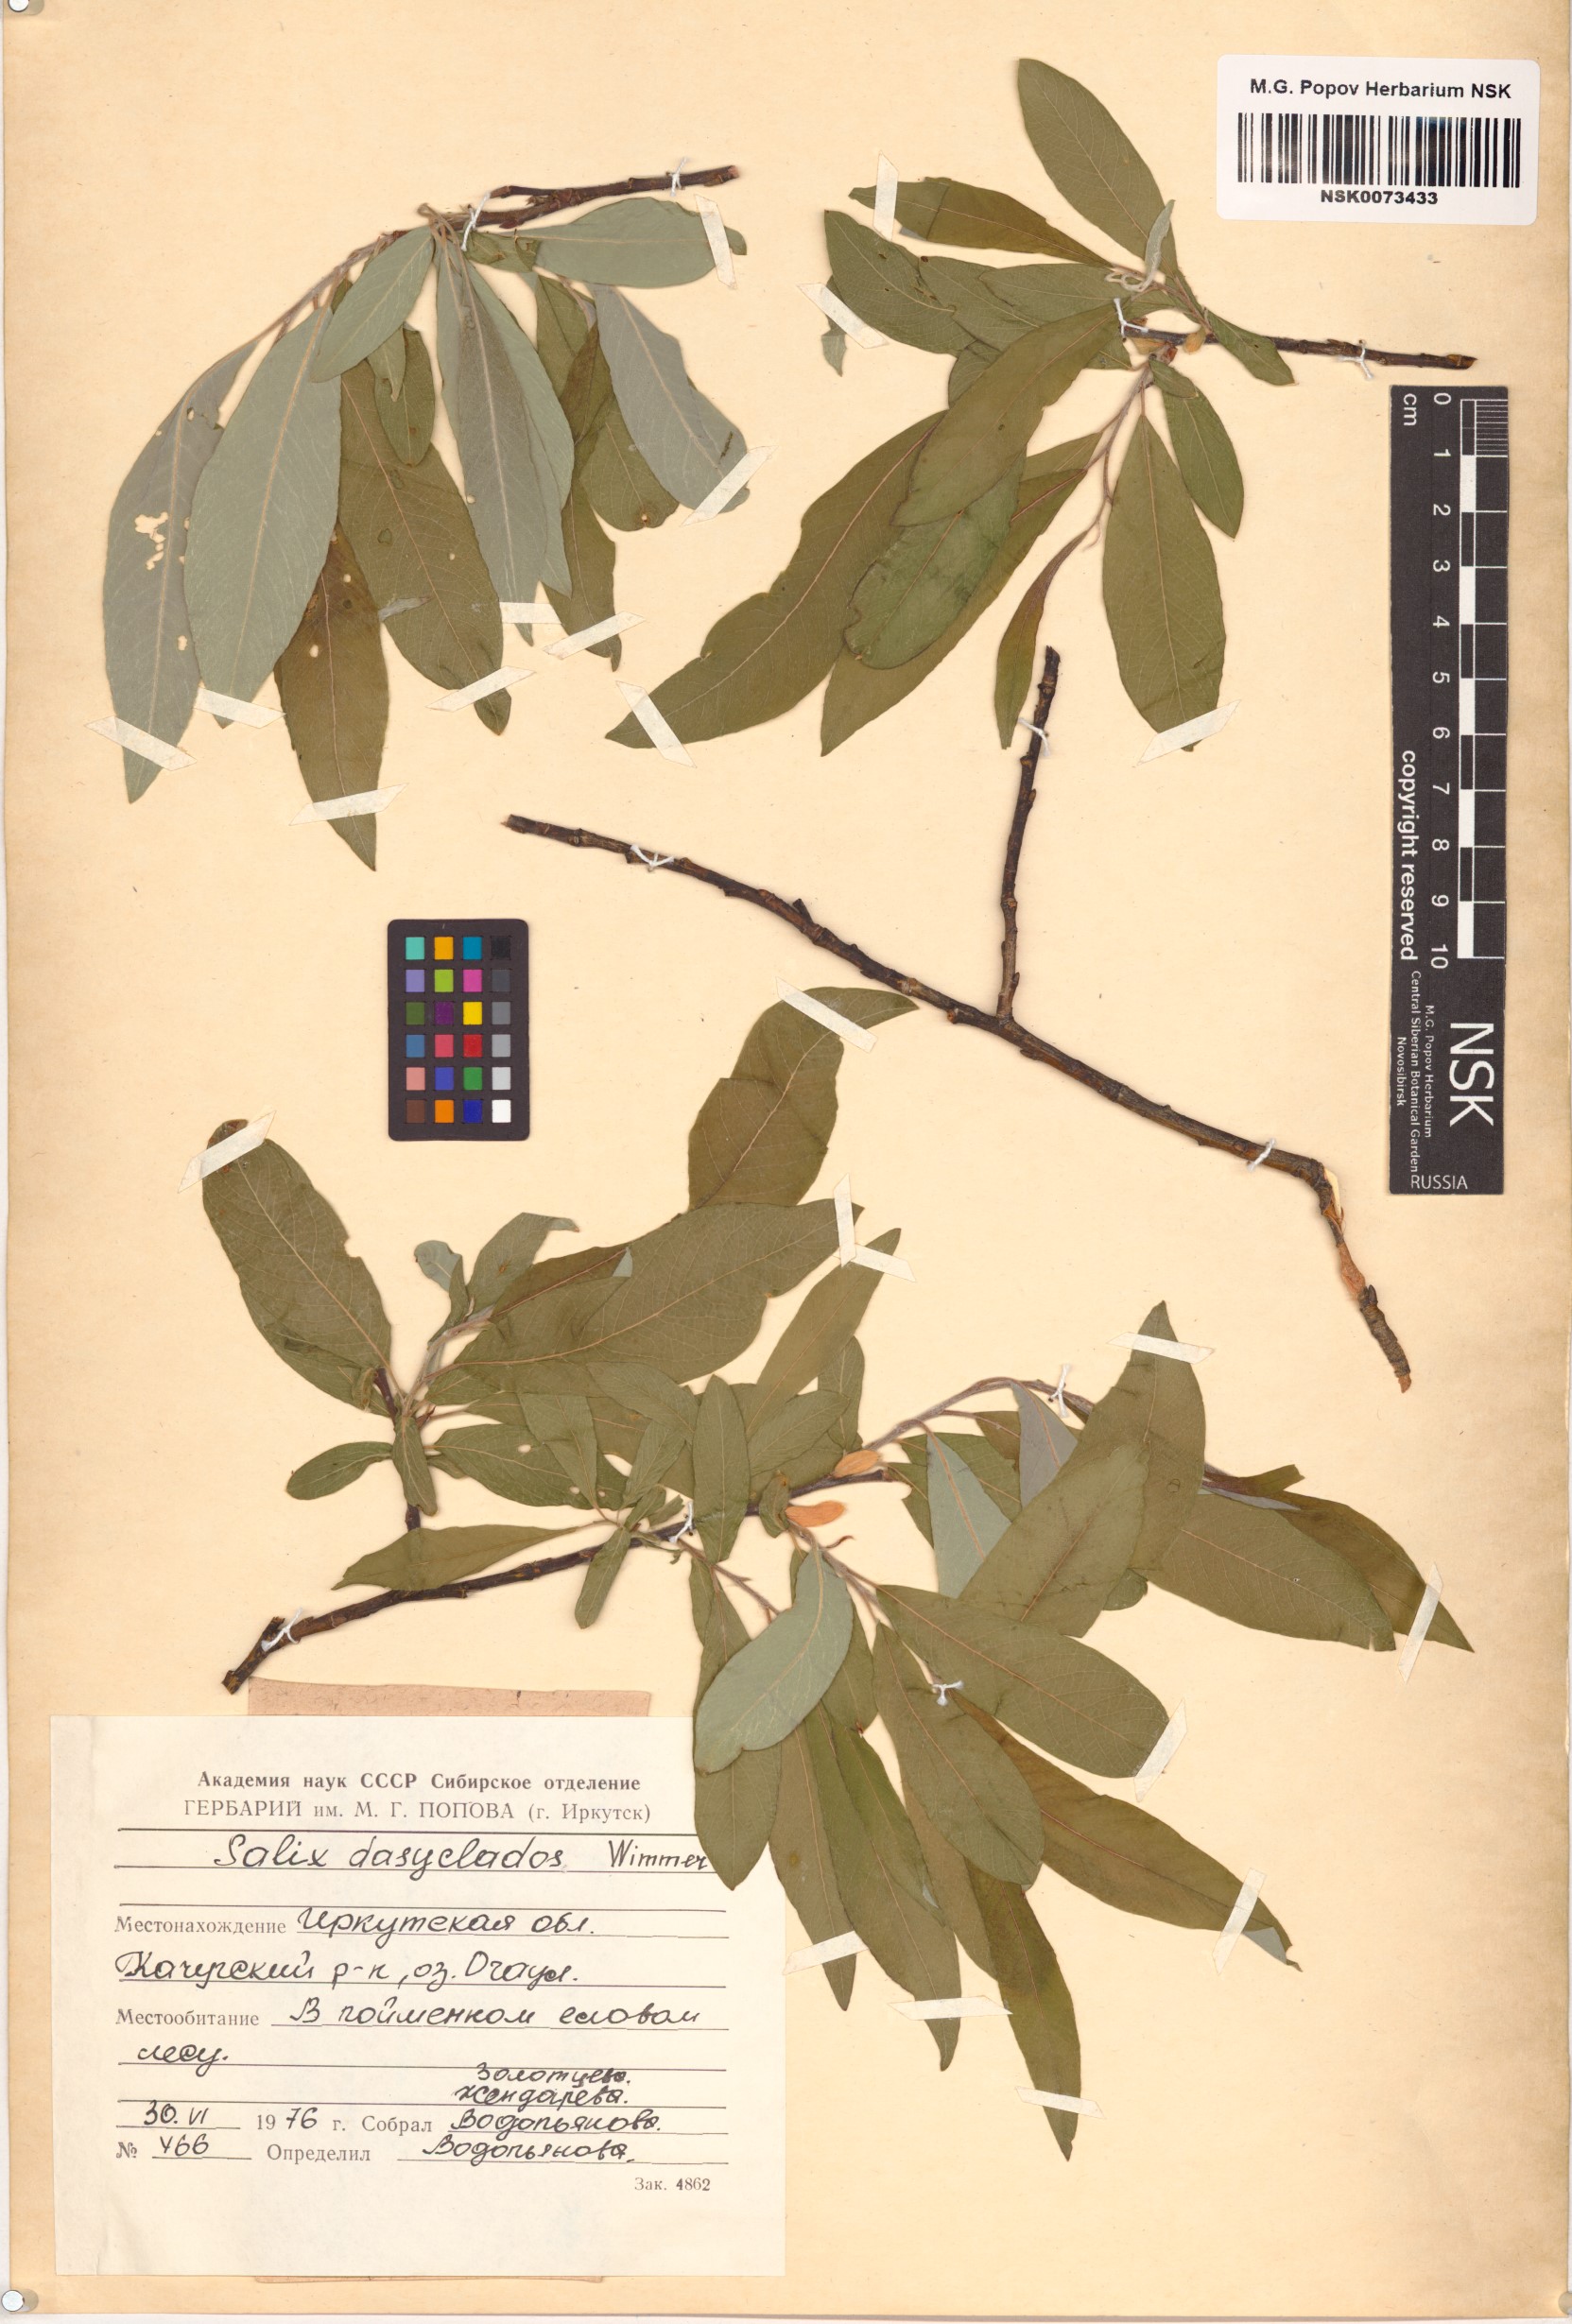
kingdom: Plantae
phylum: Tracheophyta
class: Magnoliopsida
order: Malpighiales
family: Salicaceae
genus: Salix
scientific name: Salix gmelinii
